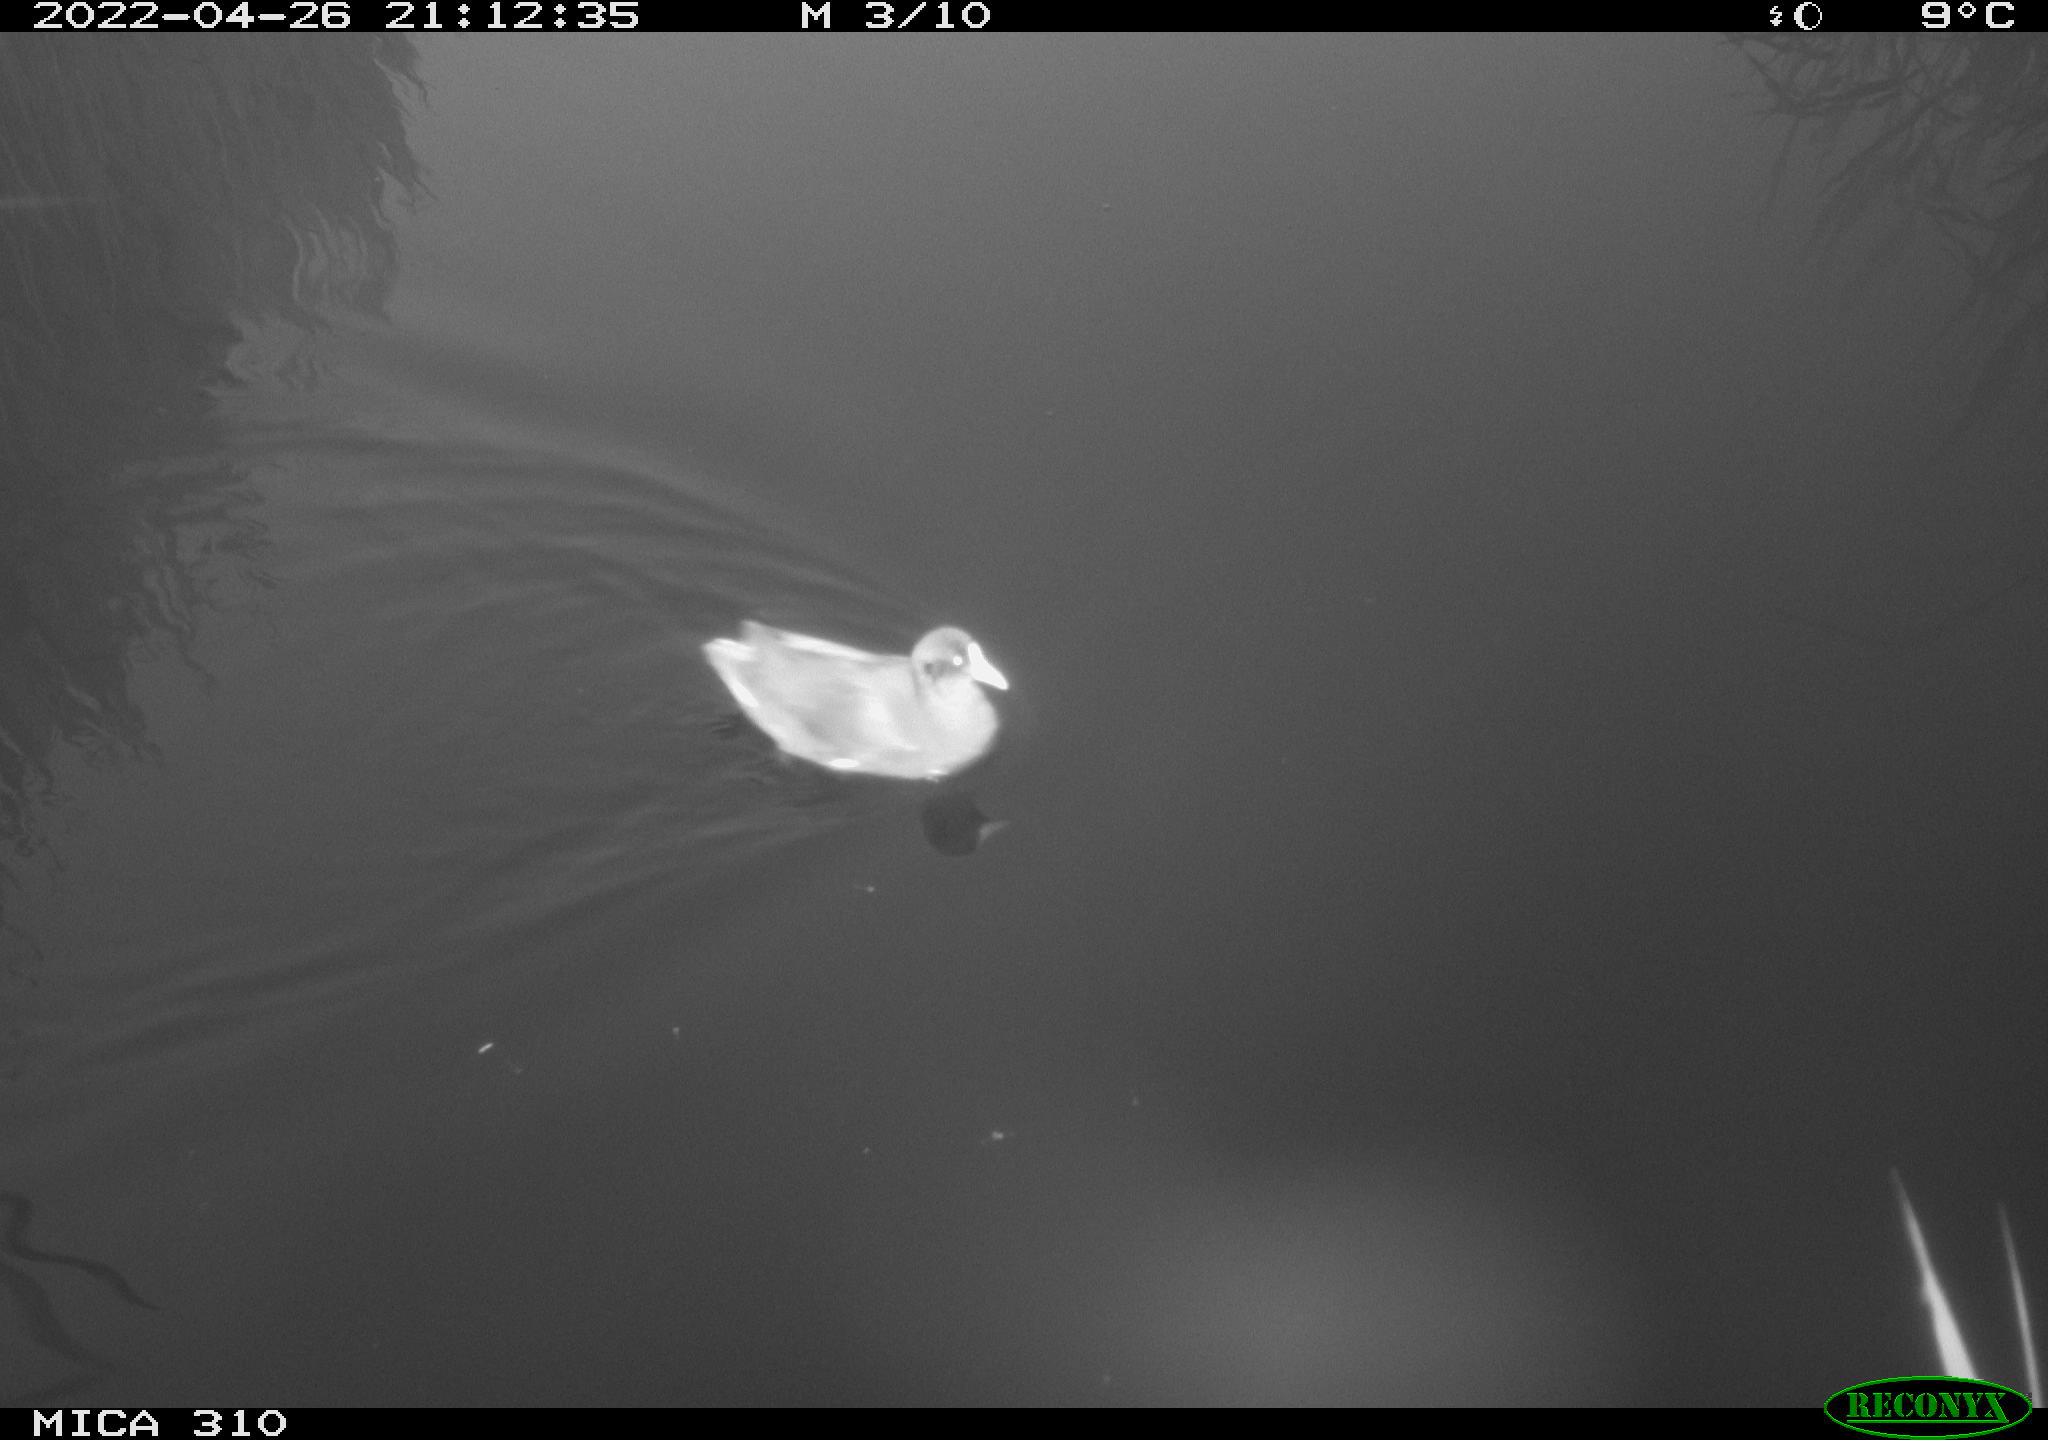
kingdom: Animalia
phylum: Chordata
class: Aves
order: Gruiformes
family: Rallidae
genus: Gallinula
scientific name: Gallinula chloropus
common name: Common moorhen
